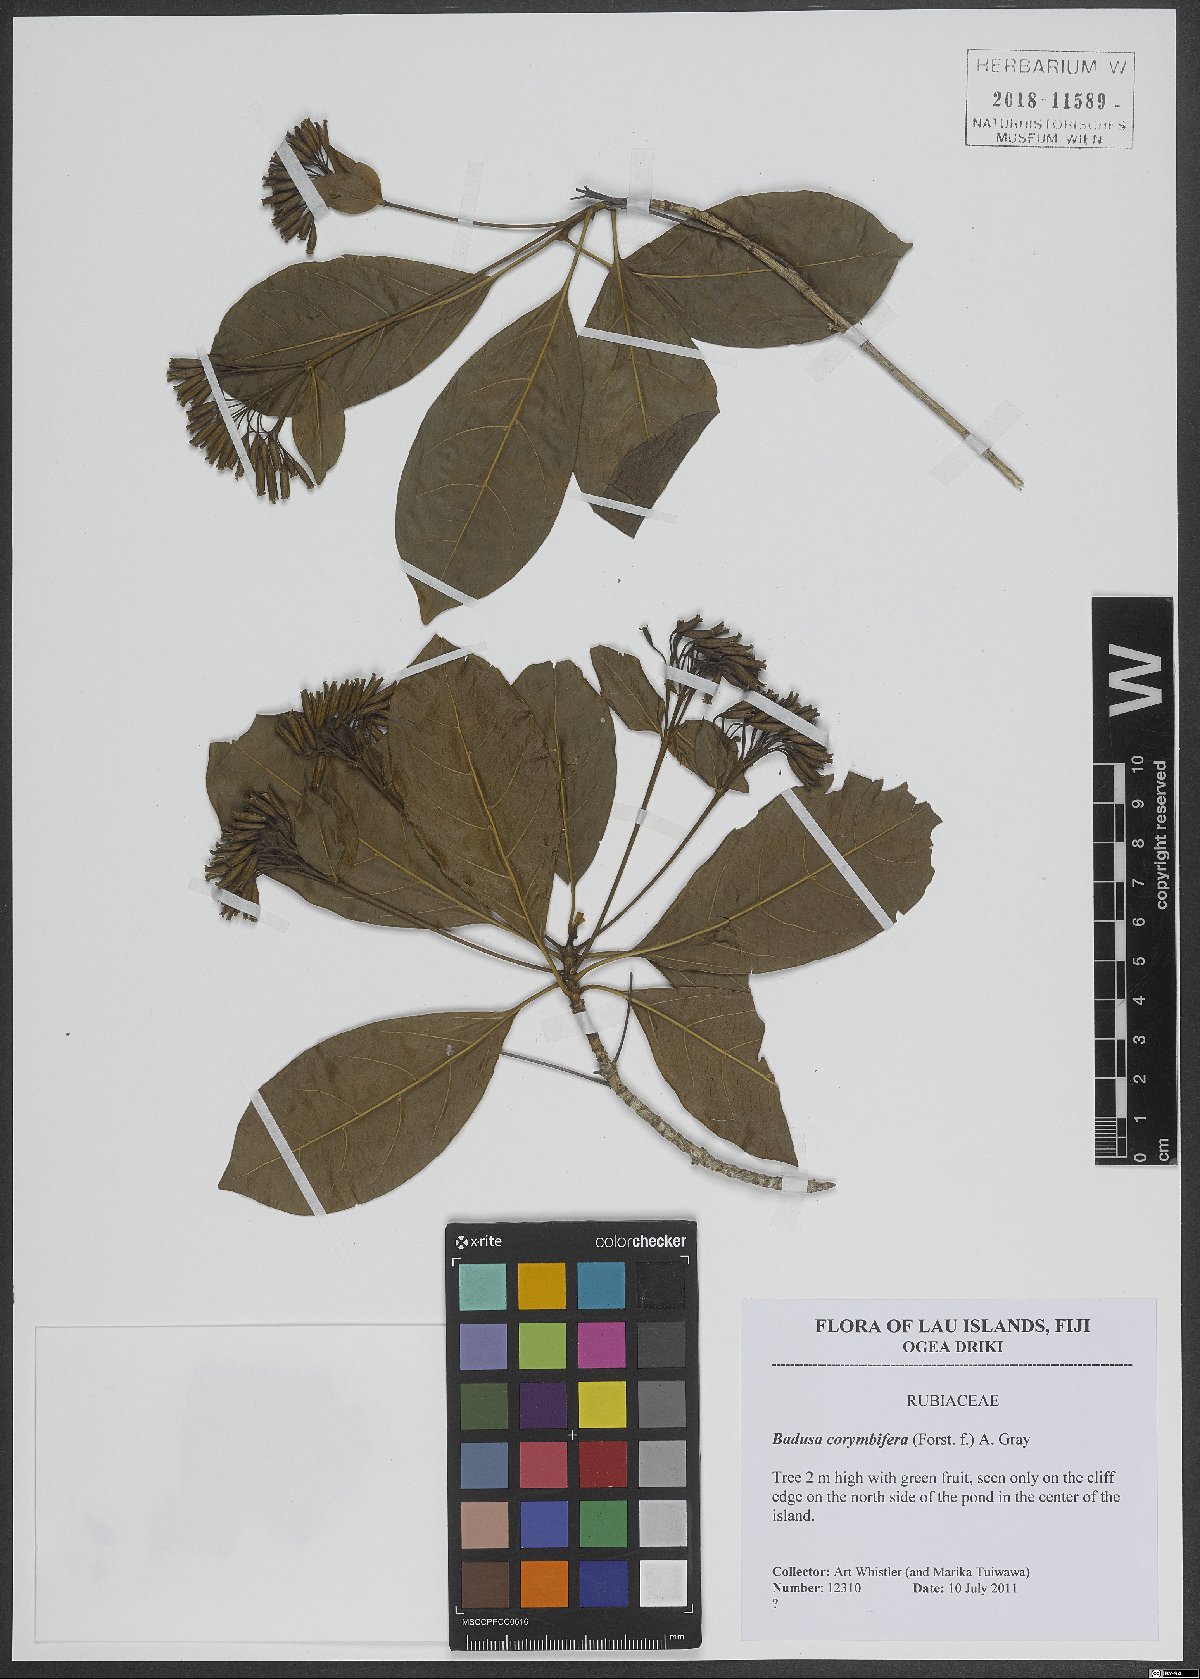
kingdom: Plantae
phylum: Tracheophyta
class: Magnoliopsida
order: Gentianales
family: Rubiaceae
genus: Badusa
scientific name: Badusa corymbifera
